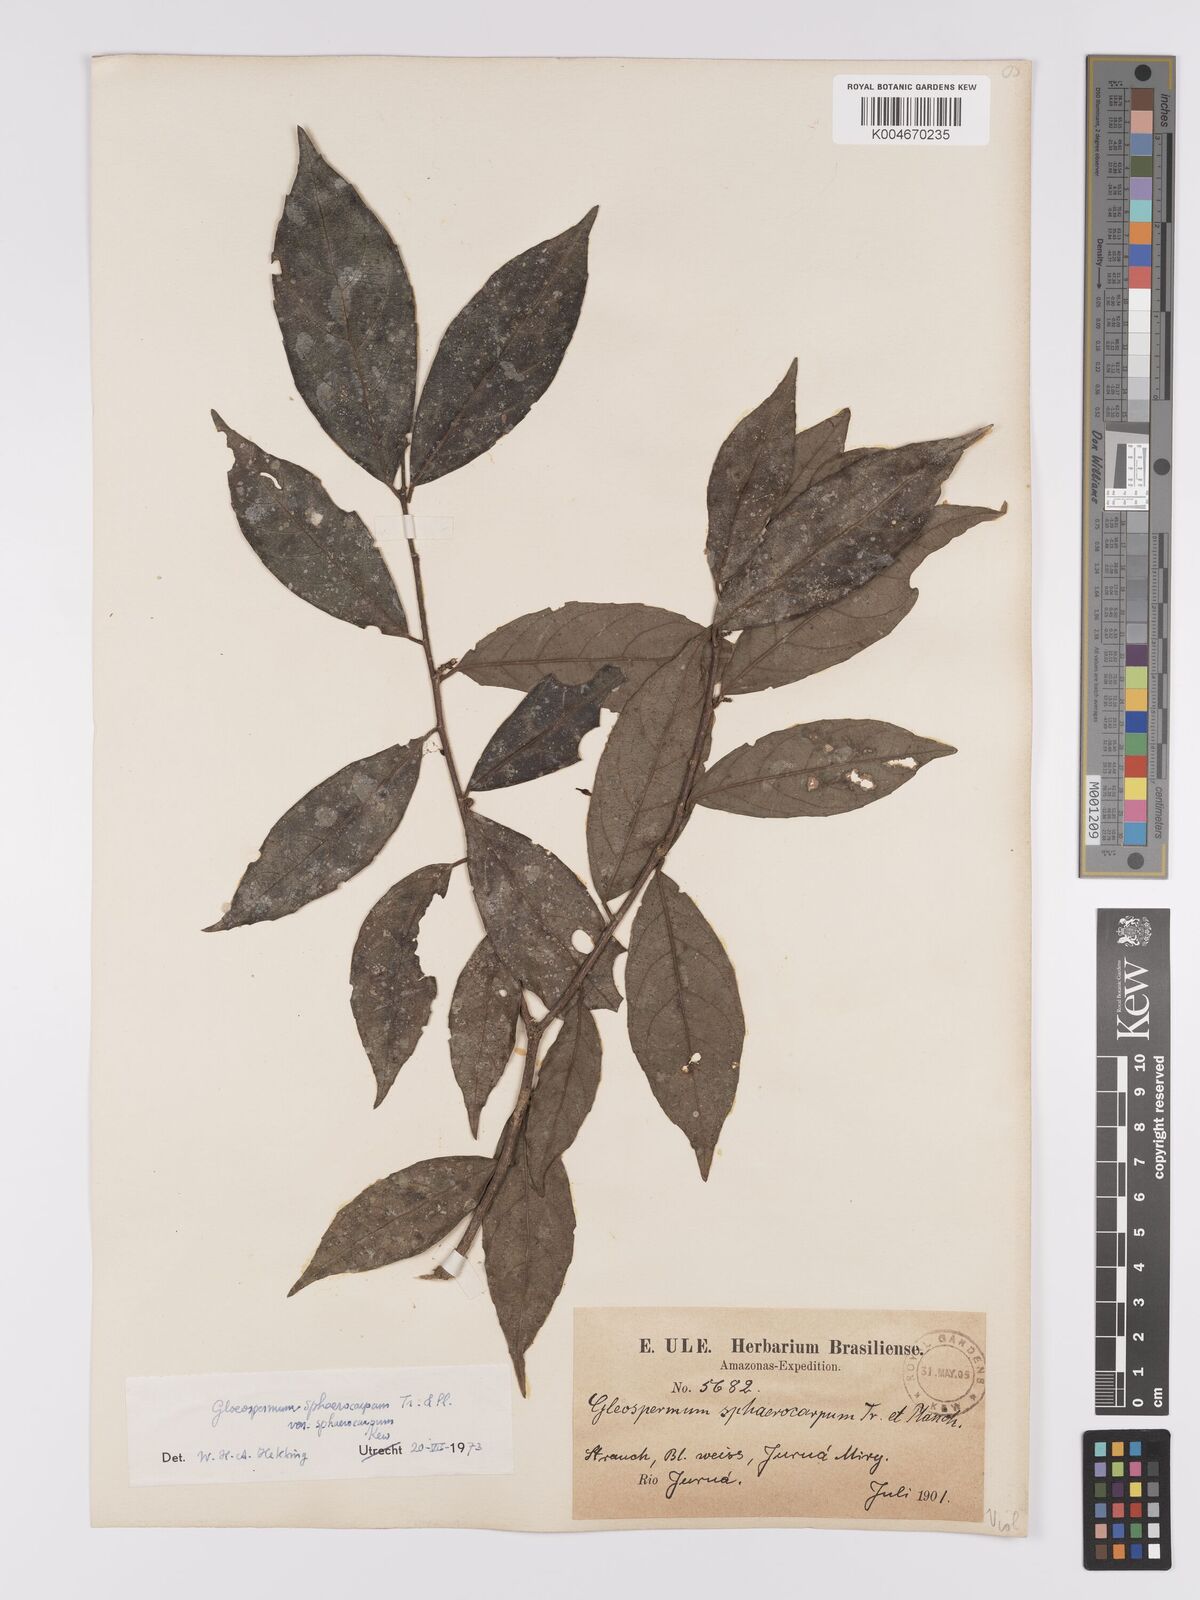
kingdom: Plantae
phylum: Tracheophyta
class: Magnoliopsida
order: Malpighiales
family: Violaceae
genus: Gloeospermum
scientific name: Gloeospermum sphaerocarpum
